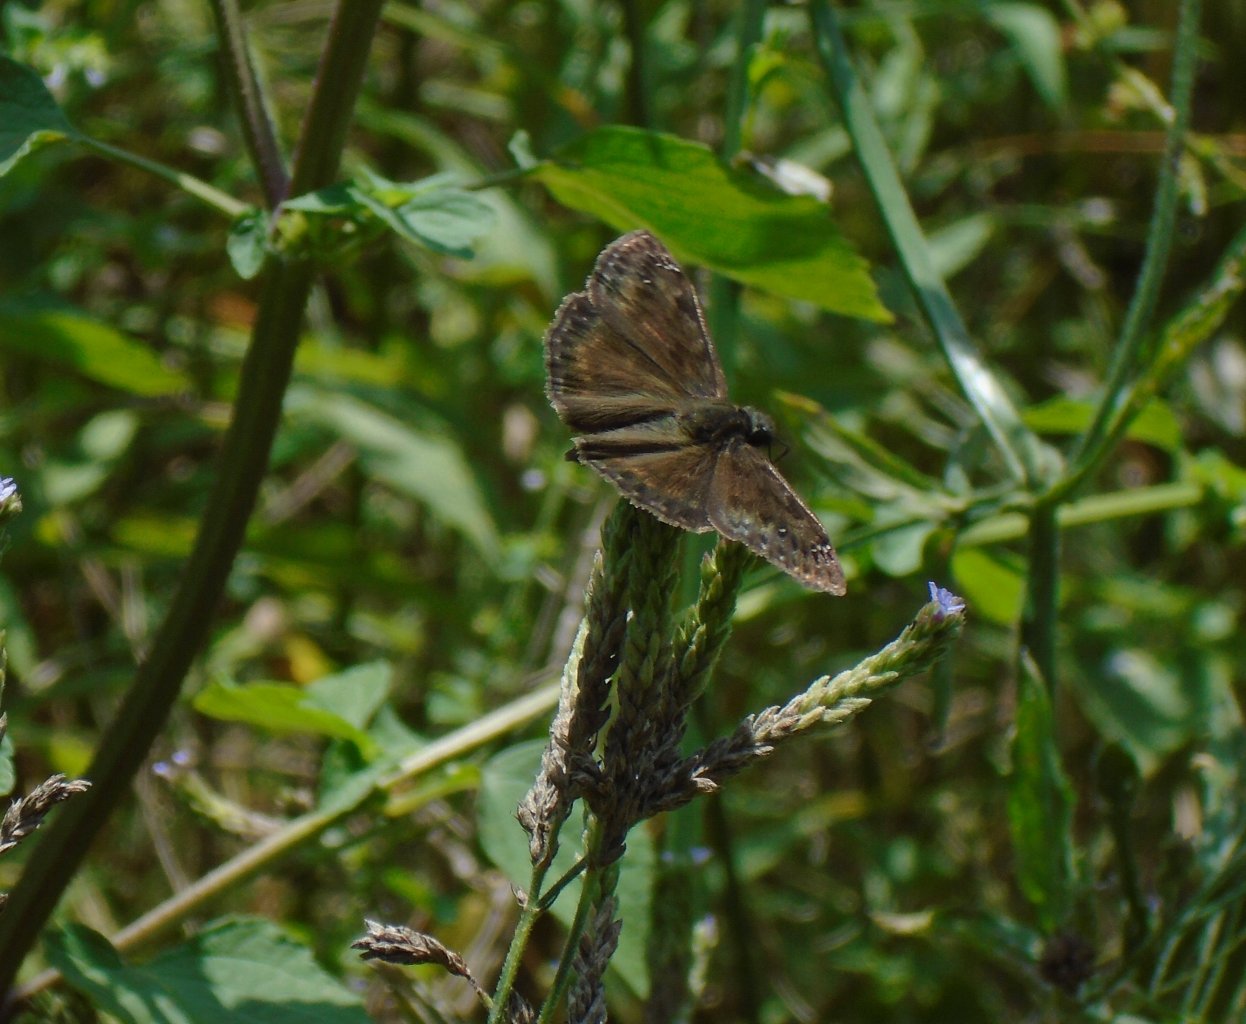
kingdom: Animalia
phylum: Arthropoda
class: Insecta
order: Lepidoptera
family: Hesperiidae
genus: Gesta
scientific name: Gesta
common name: Horace's Duskywing
